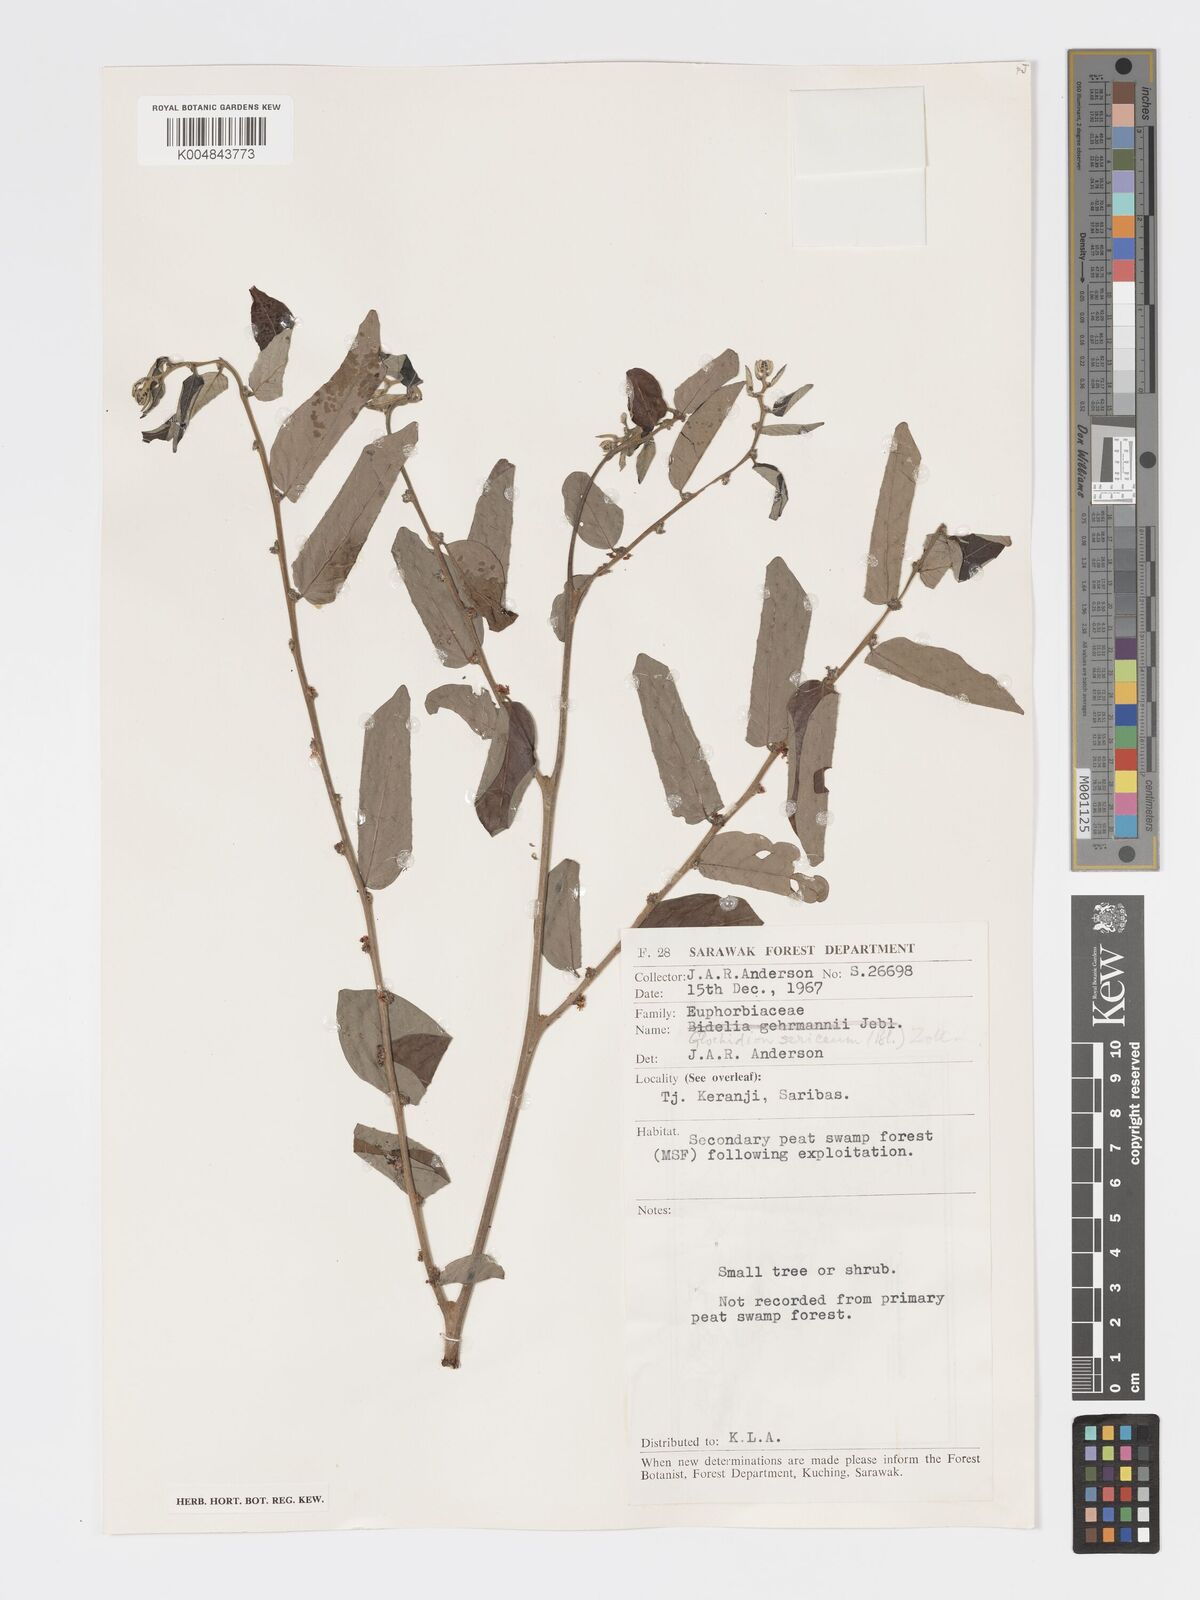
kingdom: Plantae
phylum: Tracheophyta
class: Magnoliopsida
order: Malpighiales
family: Phyllanthaceae
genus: Glochidion
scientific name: Glochidion sericeum
